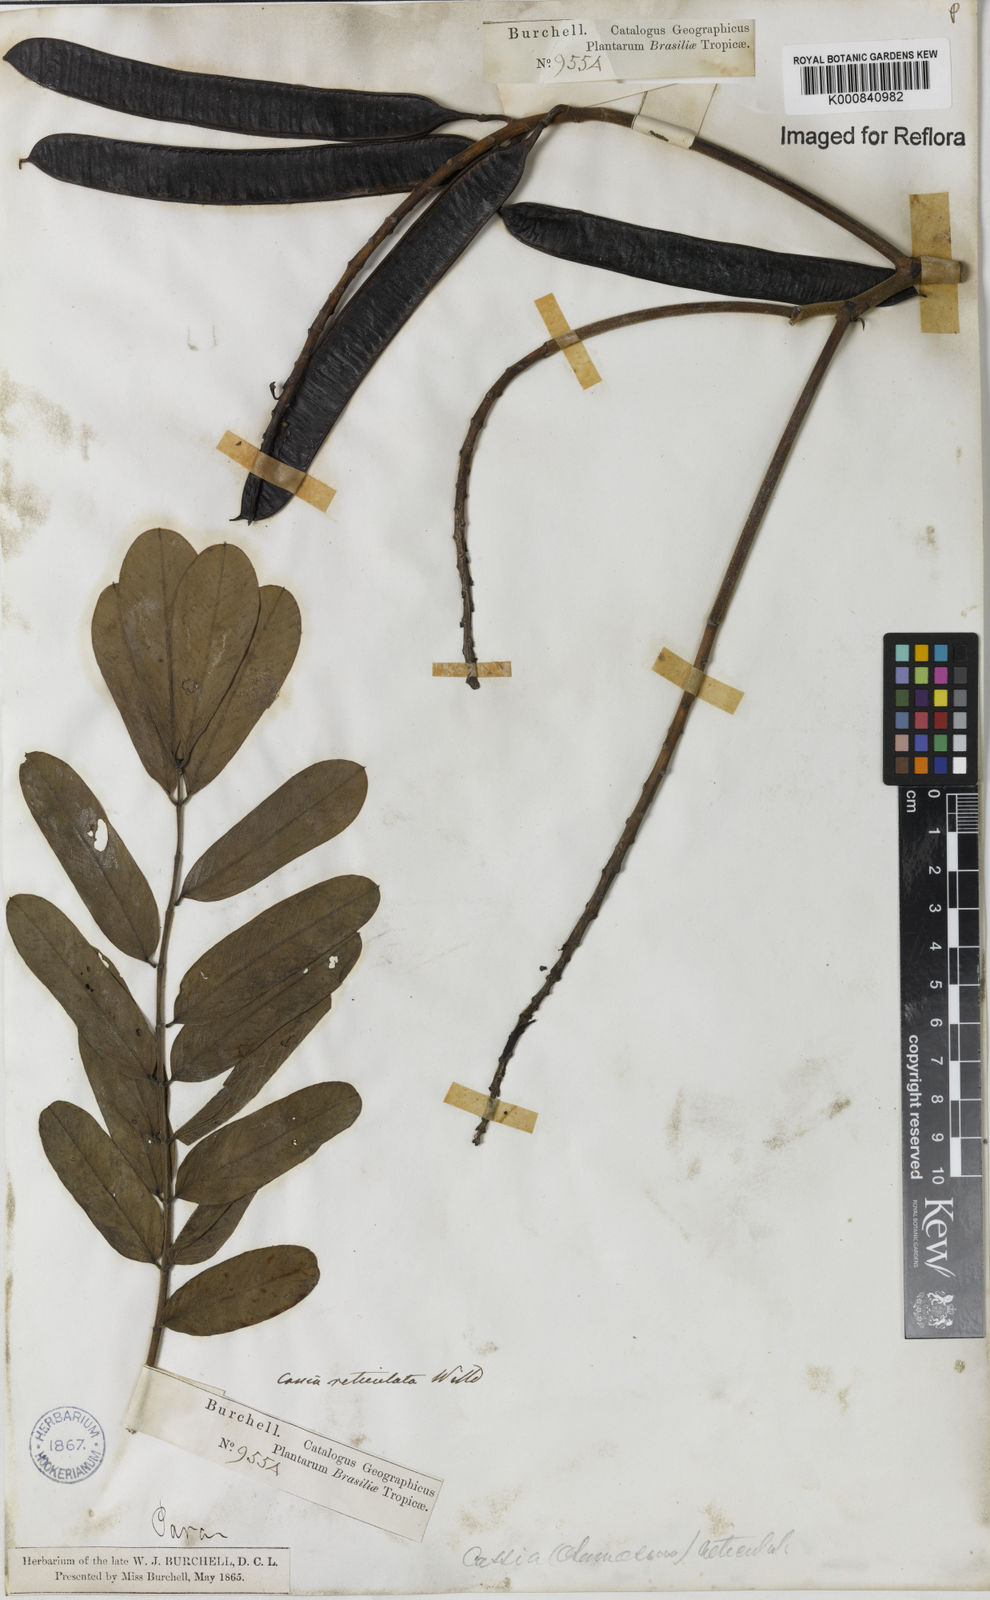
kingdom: Plantae
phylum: Tracheophyta
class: Magnoliopsida
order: Fabales
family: Fabaceae
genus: Senna
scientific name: Senna reticulata
